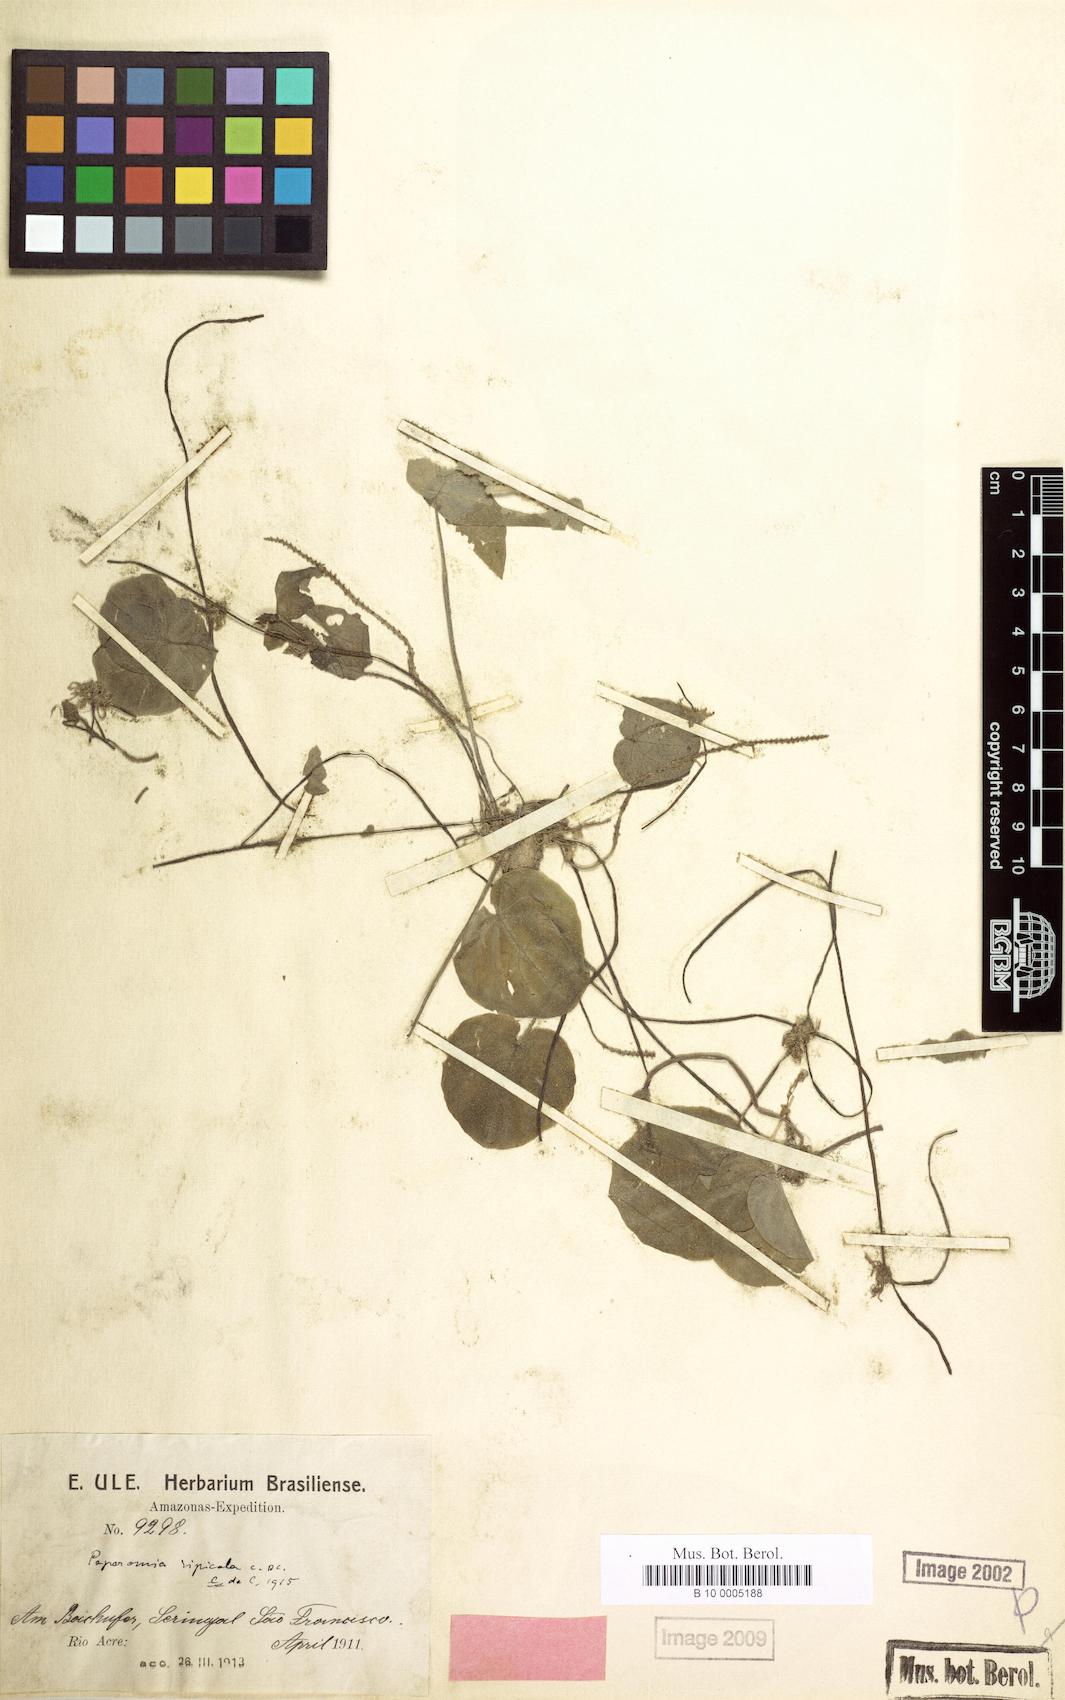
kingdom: Plantae
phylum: Tracheophyta
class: Magnoliopsida
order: Piperales
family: Piperaceae
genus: Peperomia
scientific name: Peperomia ripicola
